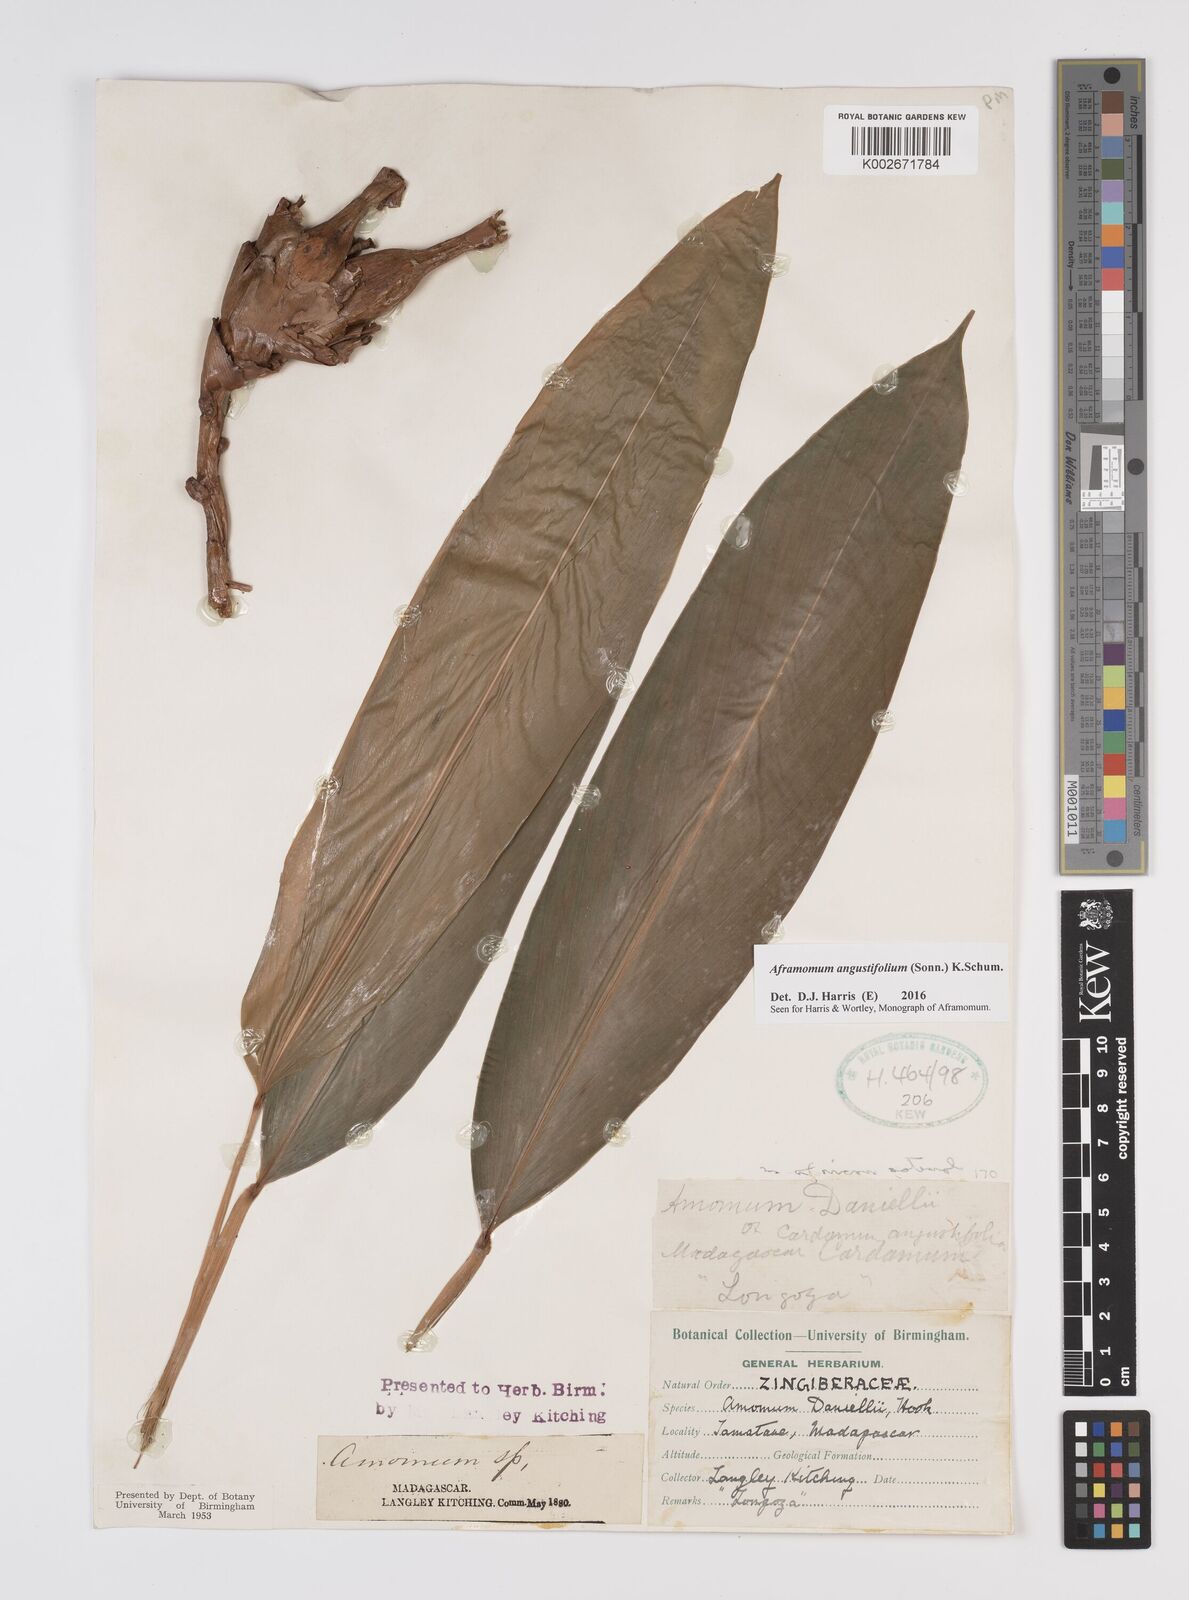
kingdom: Plantae
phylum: Tracheophyta
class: Liliopsida
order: Zingiberales
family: Zingiberaceae
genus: Aframomum
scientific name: Aframomum angustifolium
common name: Guinea grains
